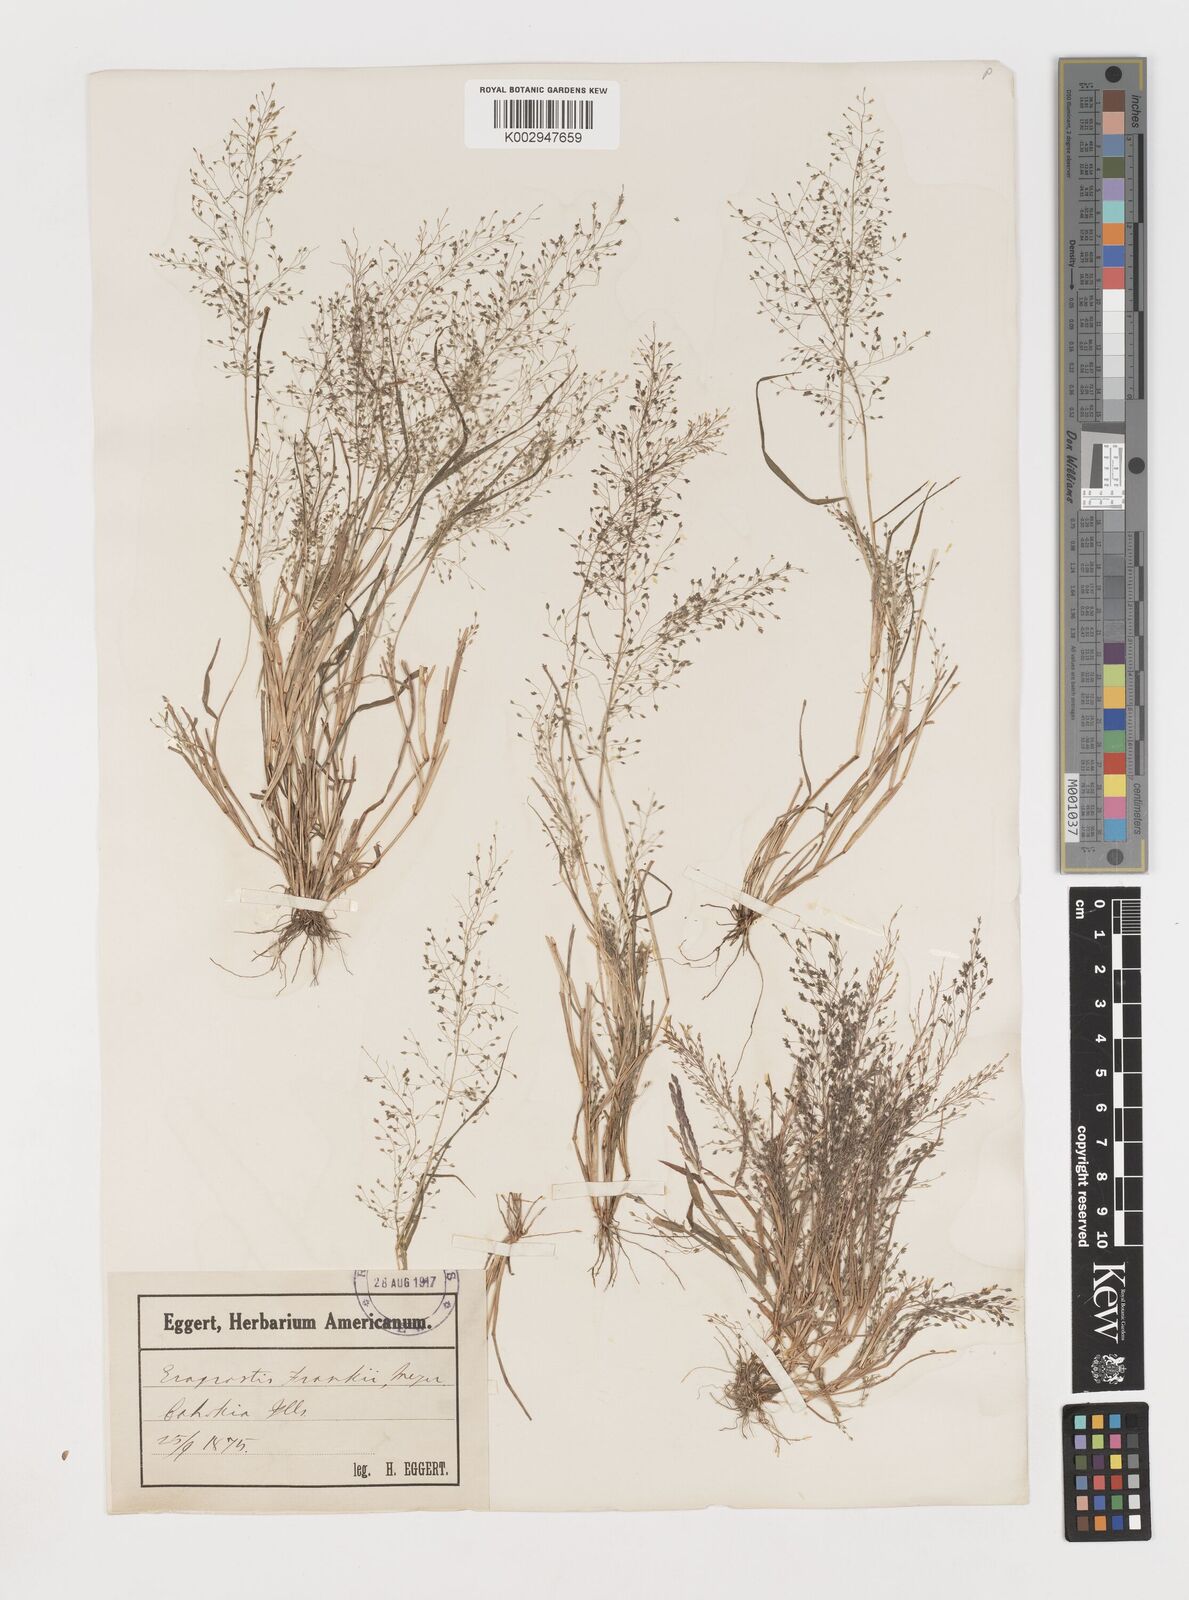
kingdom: Plantae
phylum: Tracheophyta
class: Liliopsida
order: Poales
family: Poaceae
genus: Eragrostis
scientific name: Eragrostis frankii
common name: Frank's lovegrass
